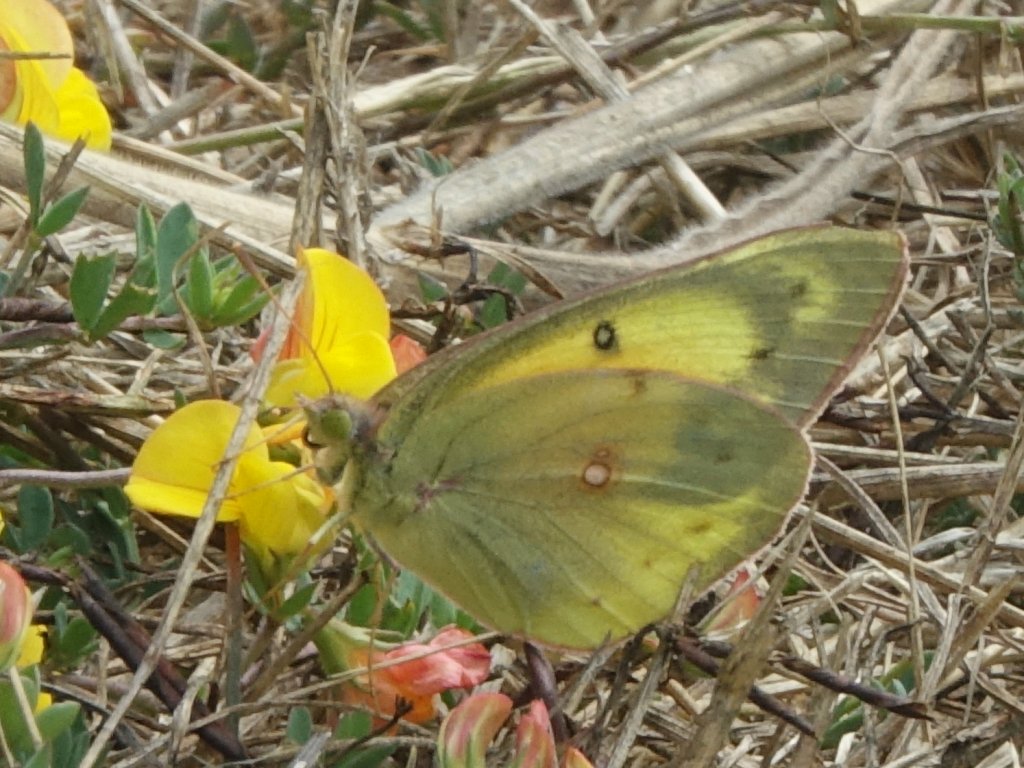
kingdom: Animalia
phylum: Arthropoda
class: Insecta
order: Lepidoptera
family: Pieridae
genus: Colias
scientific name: Colias eurytheme
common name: Orange Sulphur
